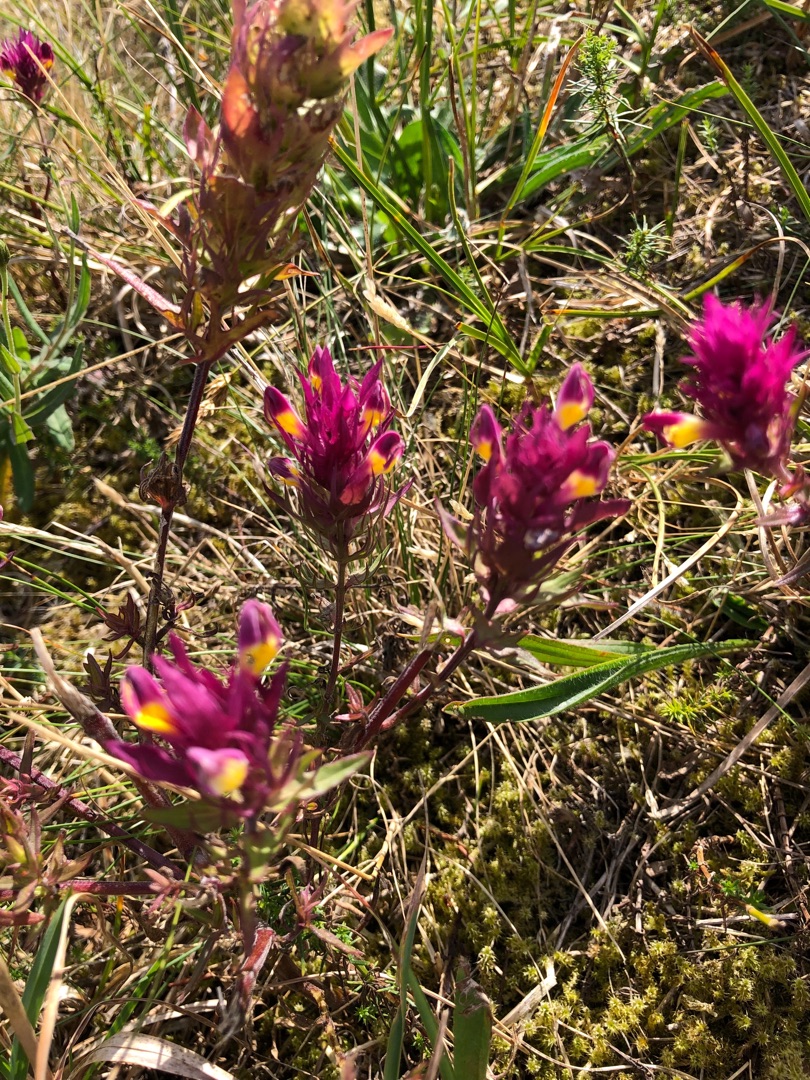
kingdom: Plantae
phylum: Tracheophyta
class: Magnoliopsida
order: Lamiales
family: Orobanchaceae
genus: Melampyrum
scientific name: Melampyrum arvense
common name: Ager-kohvede
